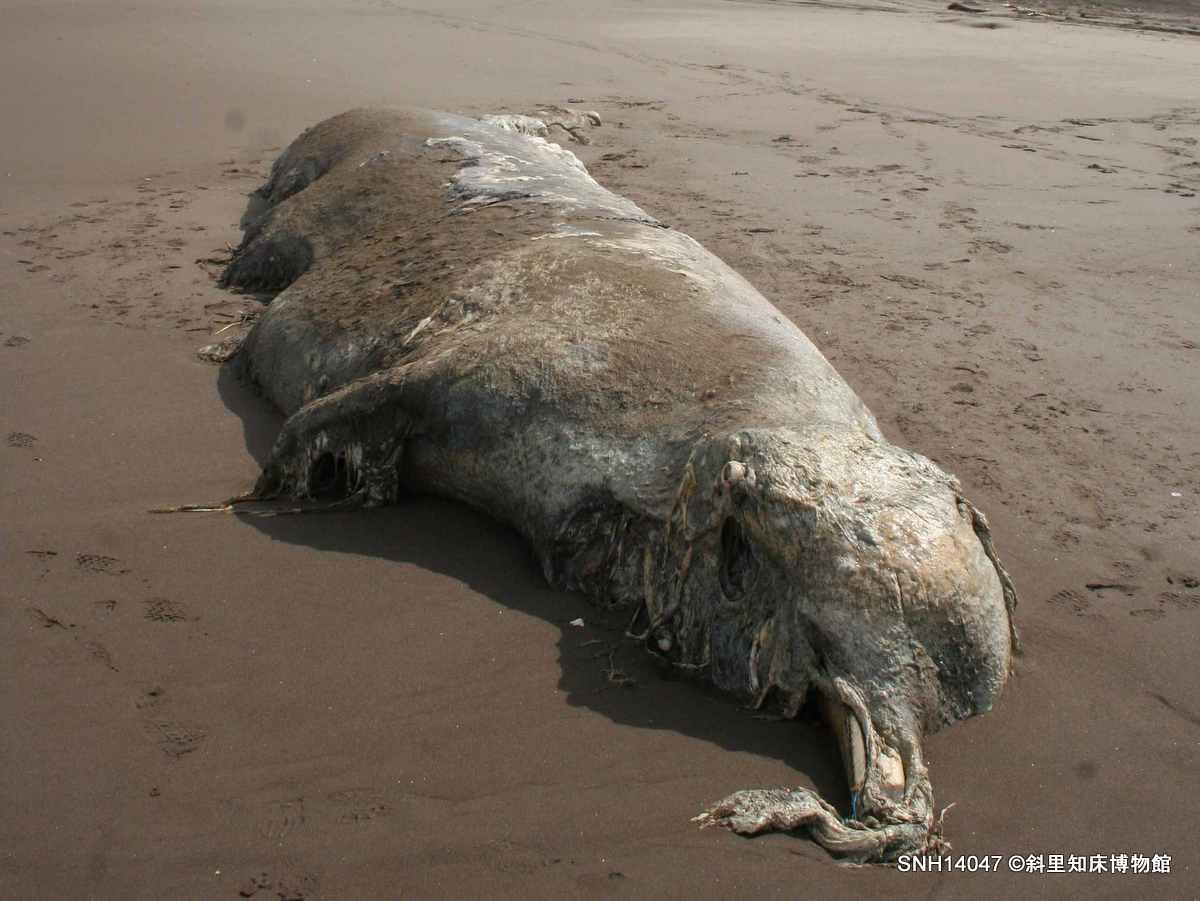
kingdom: Animalia
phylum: Chordata
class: Mammalia
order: Cetacea
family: Hyperoodontidae
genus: Berardius
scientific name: Berardius bairdii
